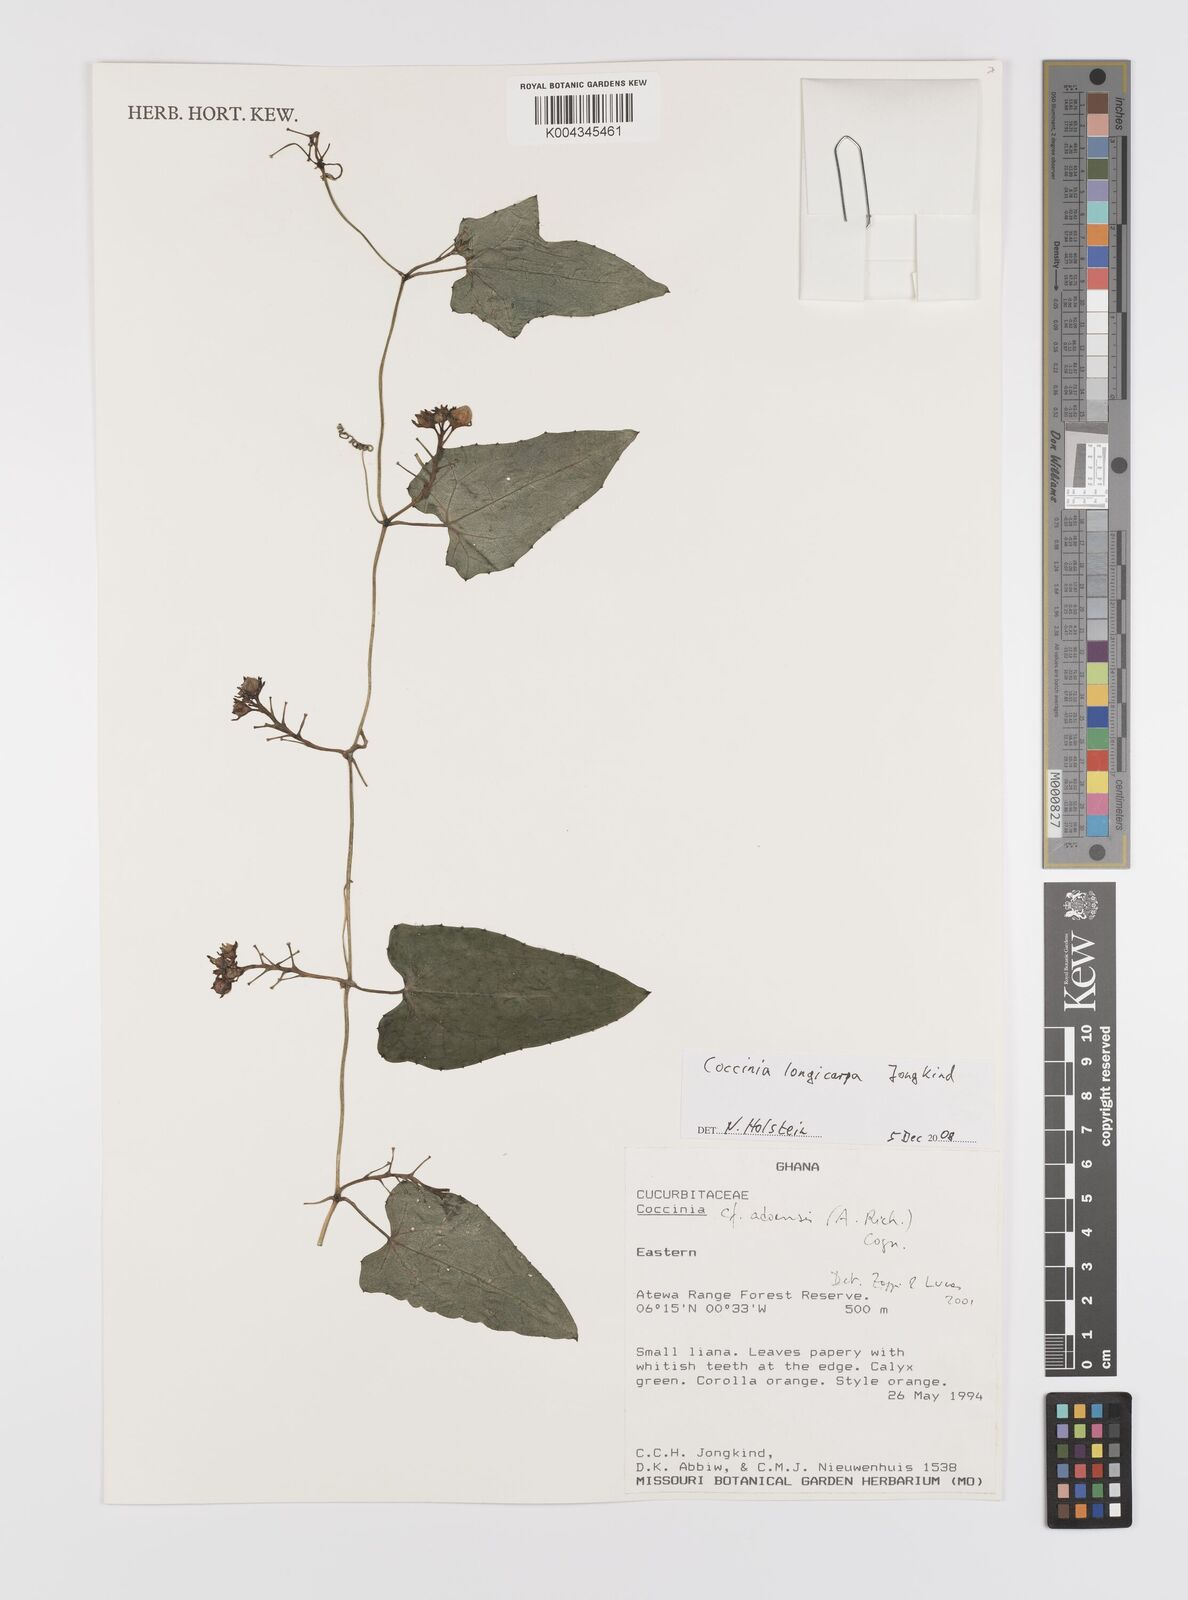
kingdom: Plantae
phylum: Tracheophyta
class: Magnoliopsida
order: Cucurbitales
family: Cucurbitaceae
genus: Coccinia
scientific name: Coccinia longicarpa
